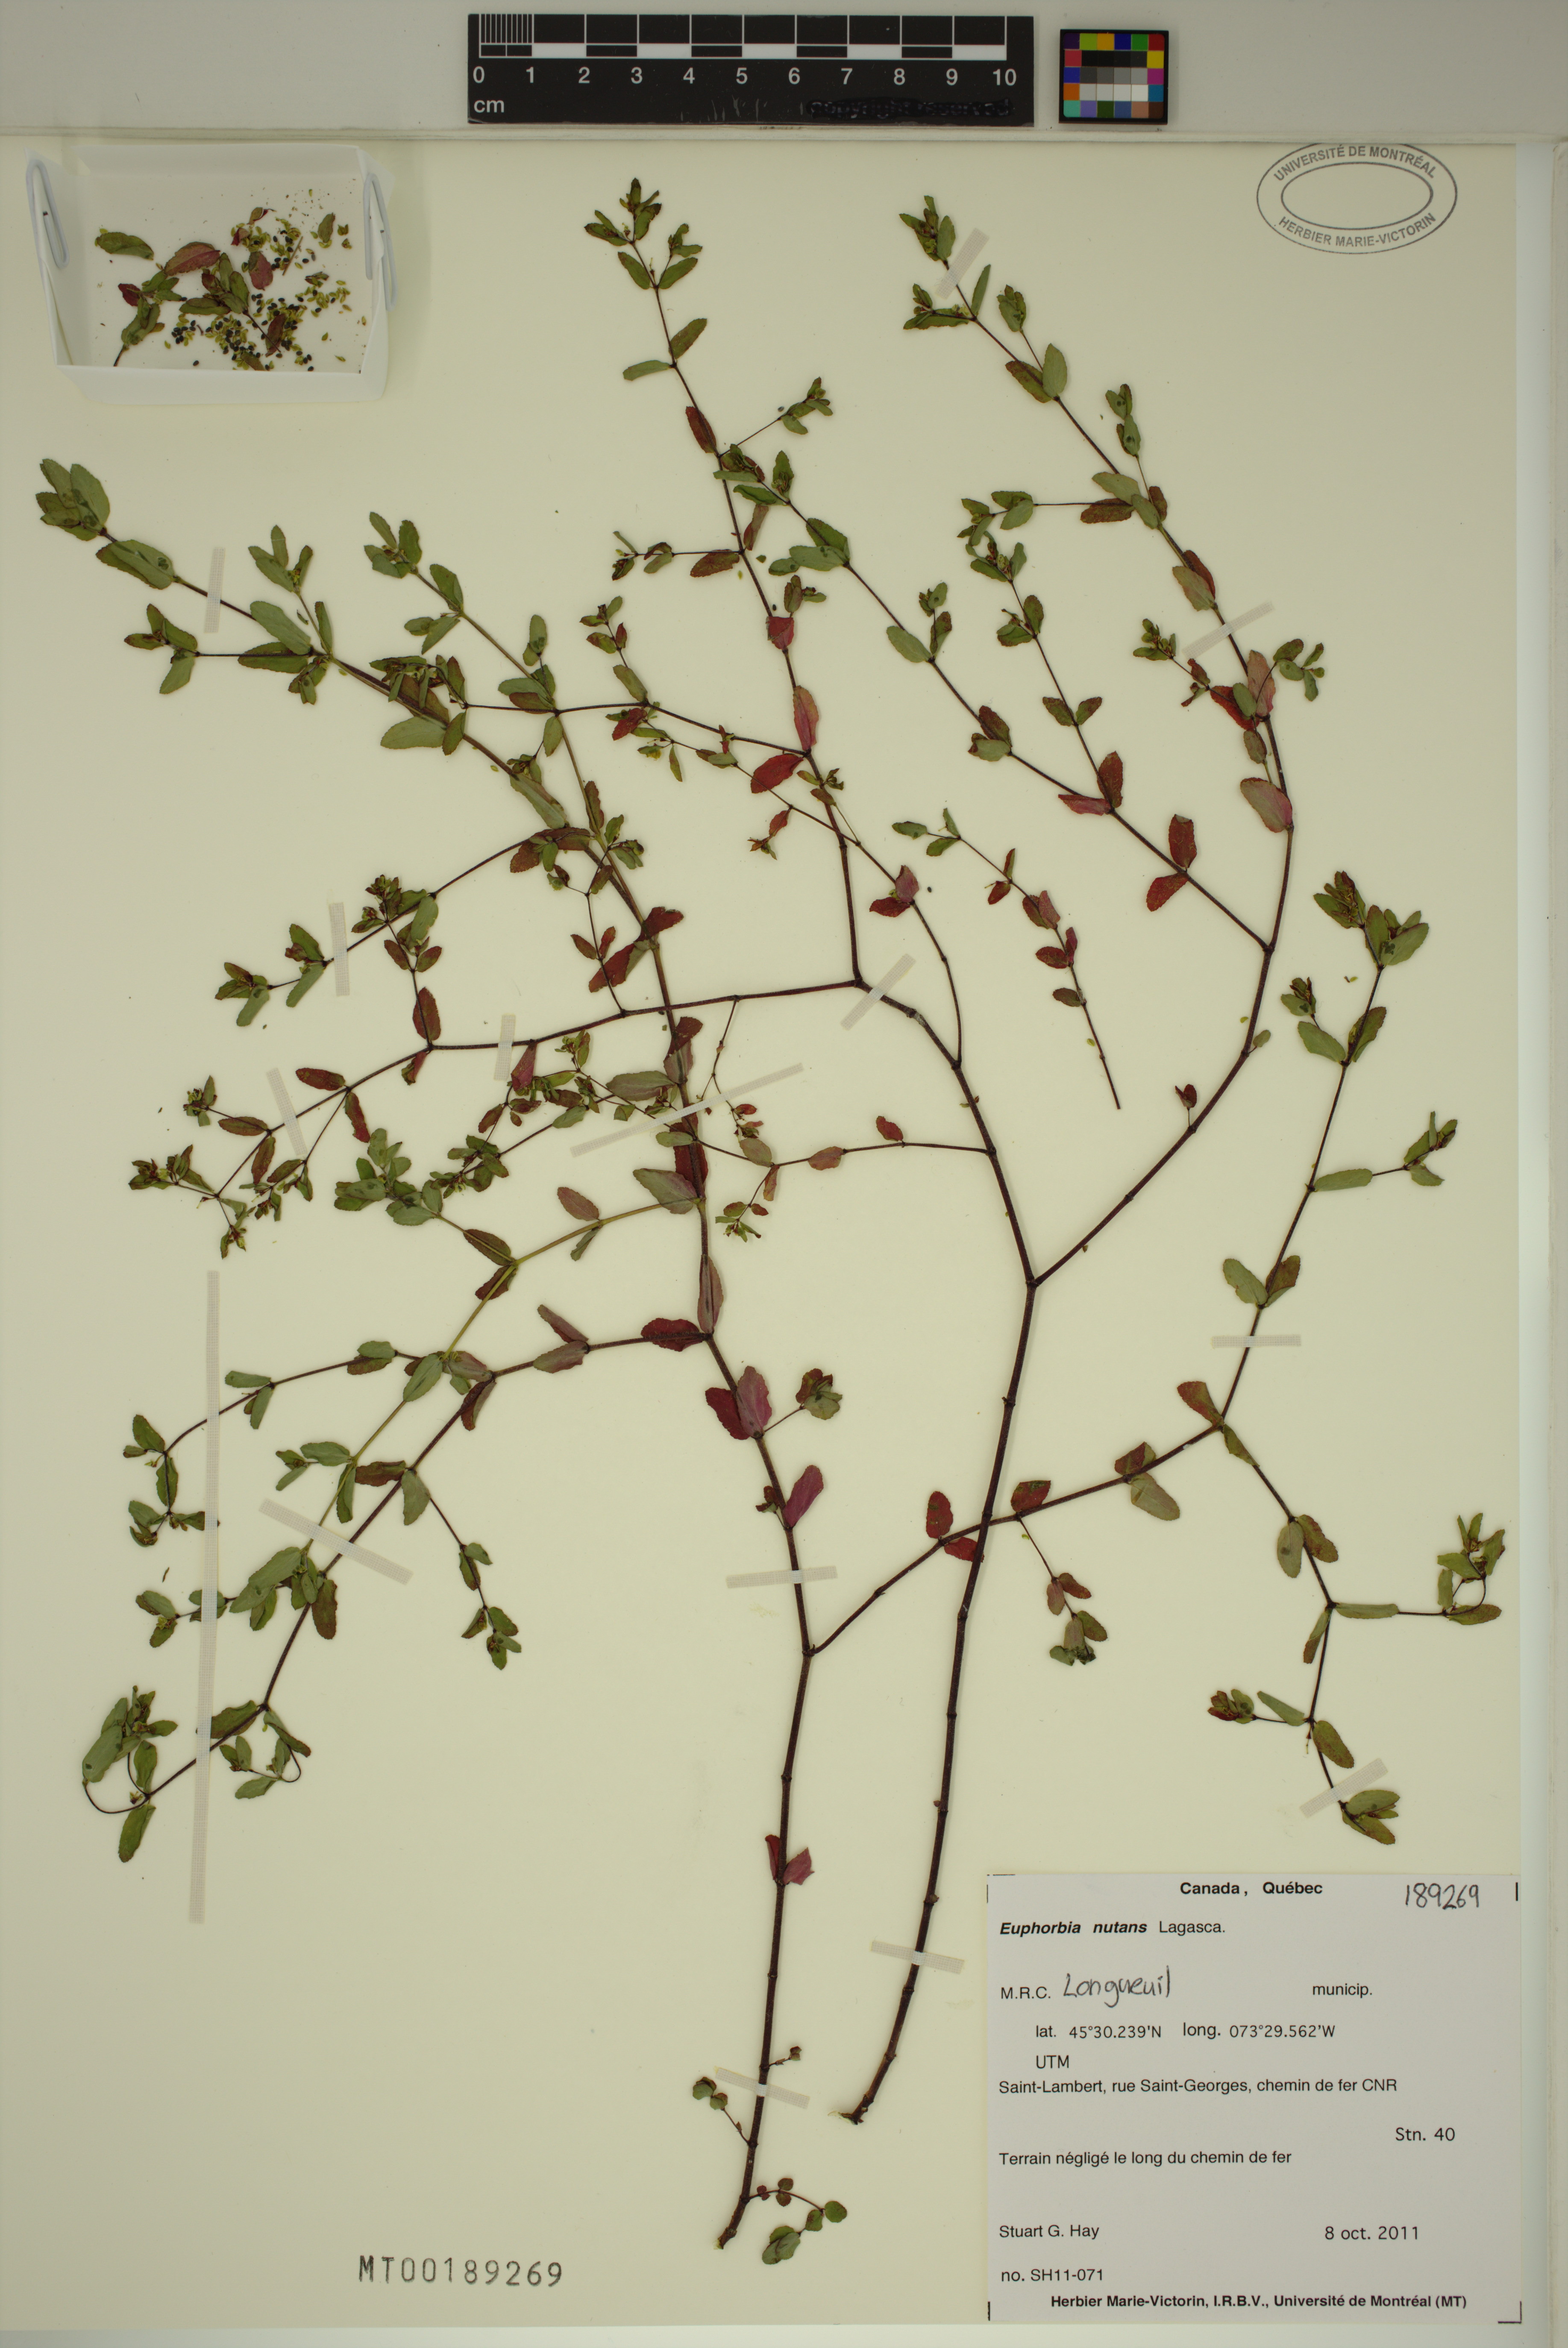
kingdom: Plantae
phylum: Tracheophyta
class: Magnoliopsida
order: Malpighiales
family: Euphorbiaceae
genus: Euphorbia
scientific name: Euphorbia nutans
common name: Eyebane
